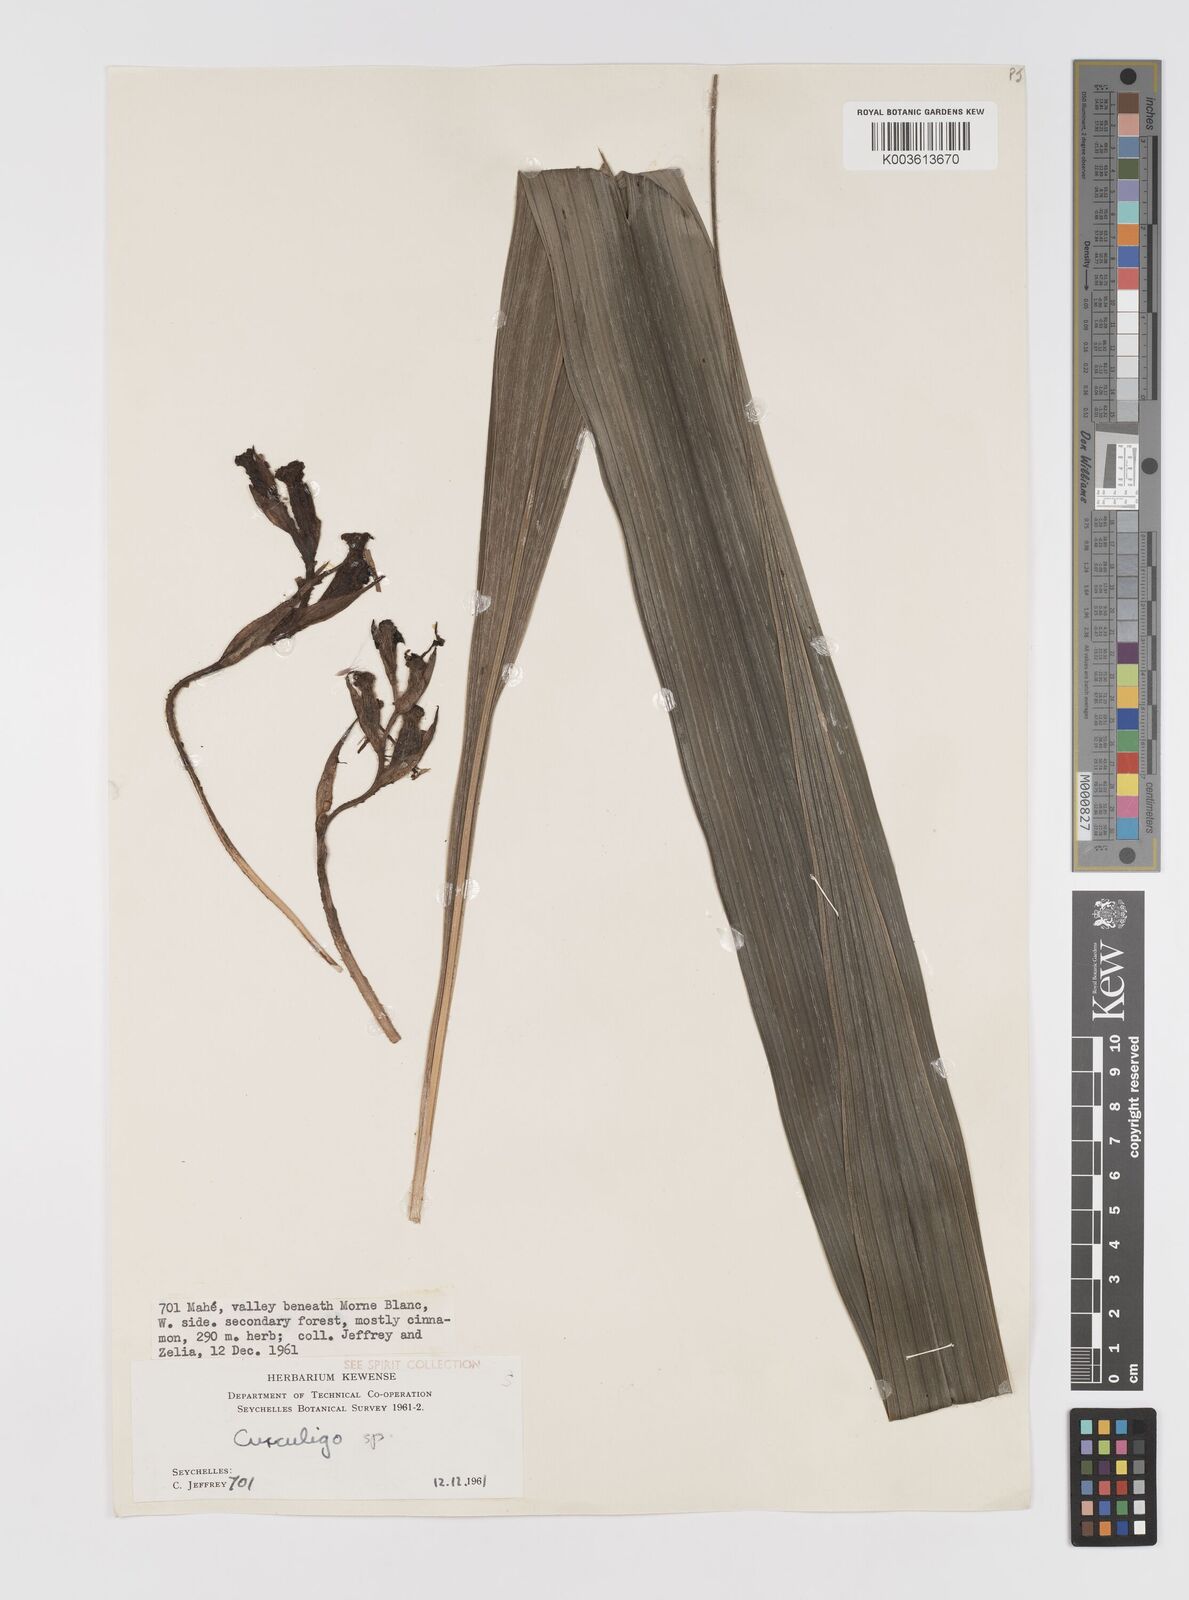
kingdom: Plantae
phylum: Tracheophyta
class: Liliopsida
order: Asparagales
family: Hypoxidaceae
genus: Curculigo
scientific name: Curculigo maheensis
